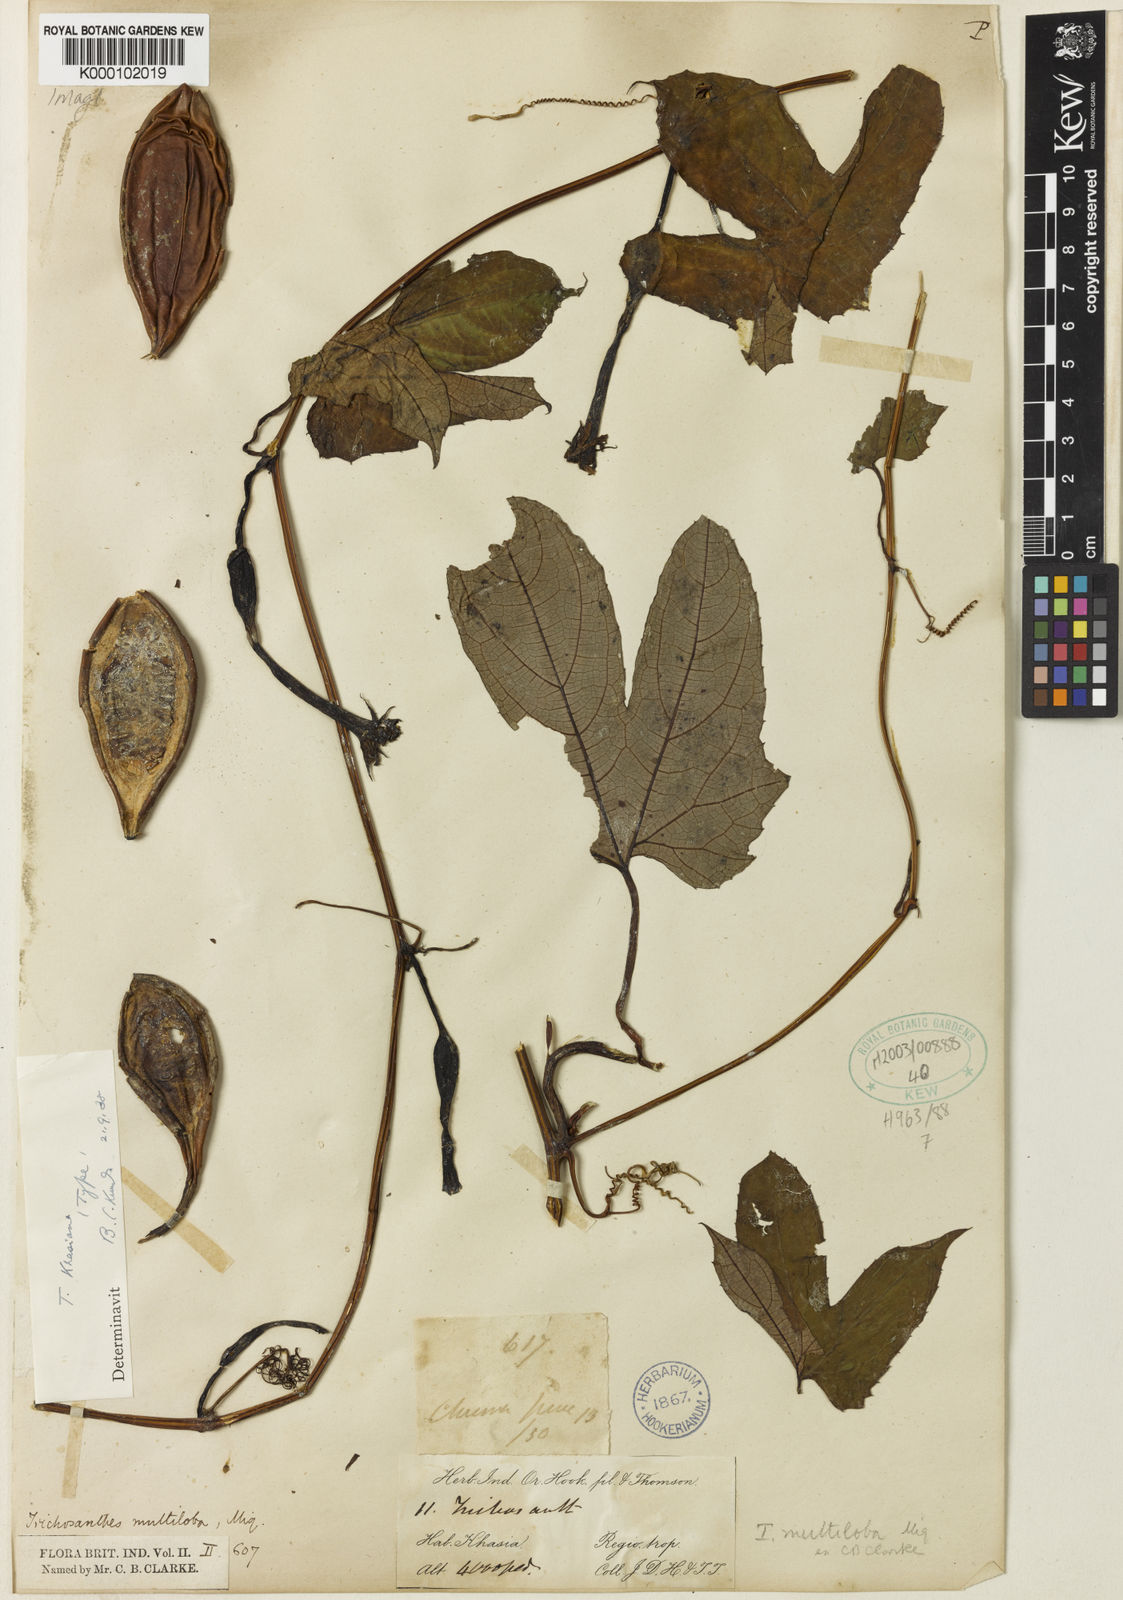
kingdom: Plantae
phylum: Tracheophyta
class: Magnoliopsida
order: Cucurbitales
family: Cucurbitaceae
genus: Trichosanthes
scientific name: Trichosanthes khasiana
